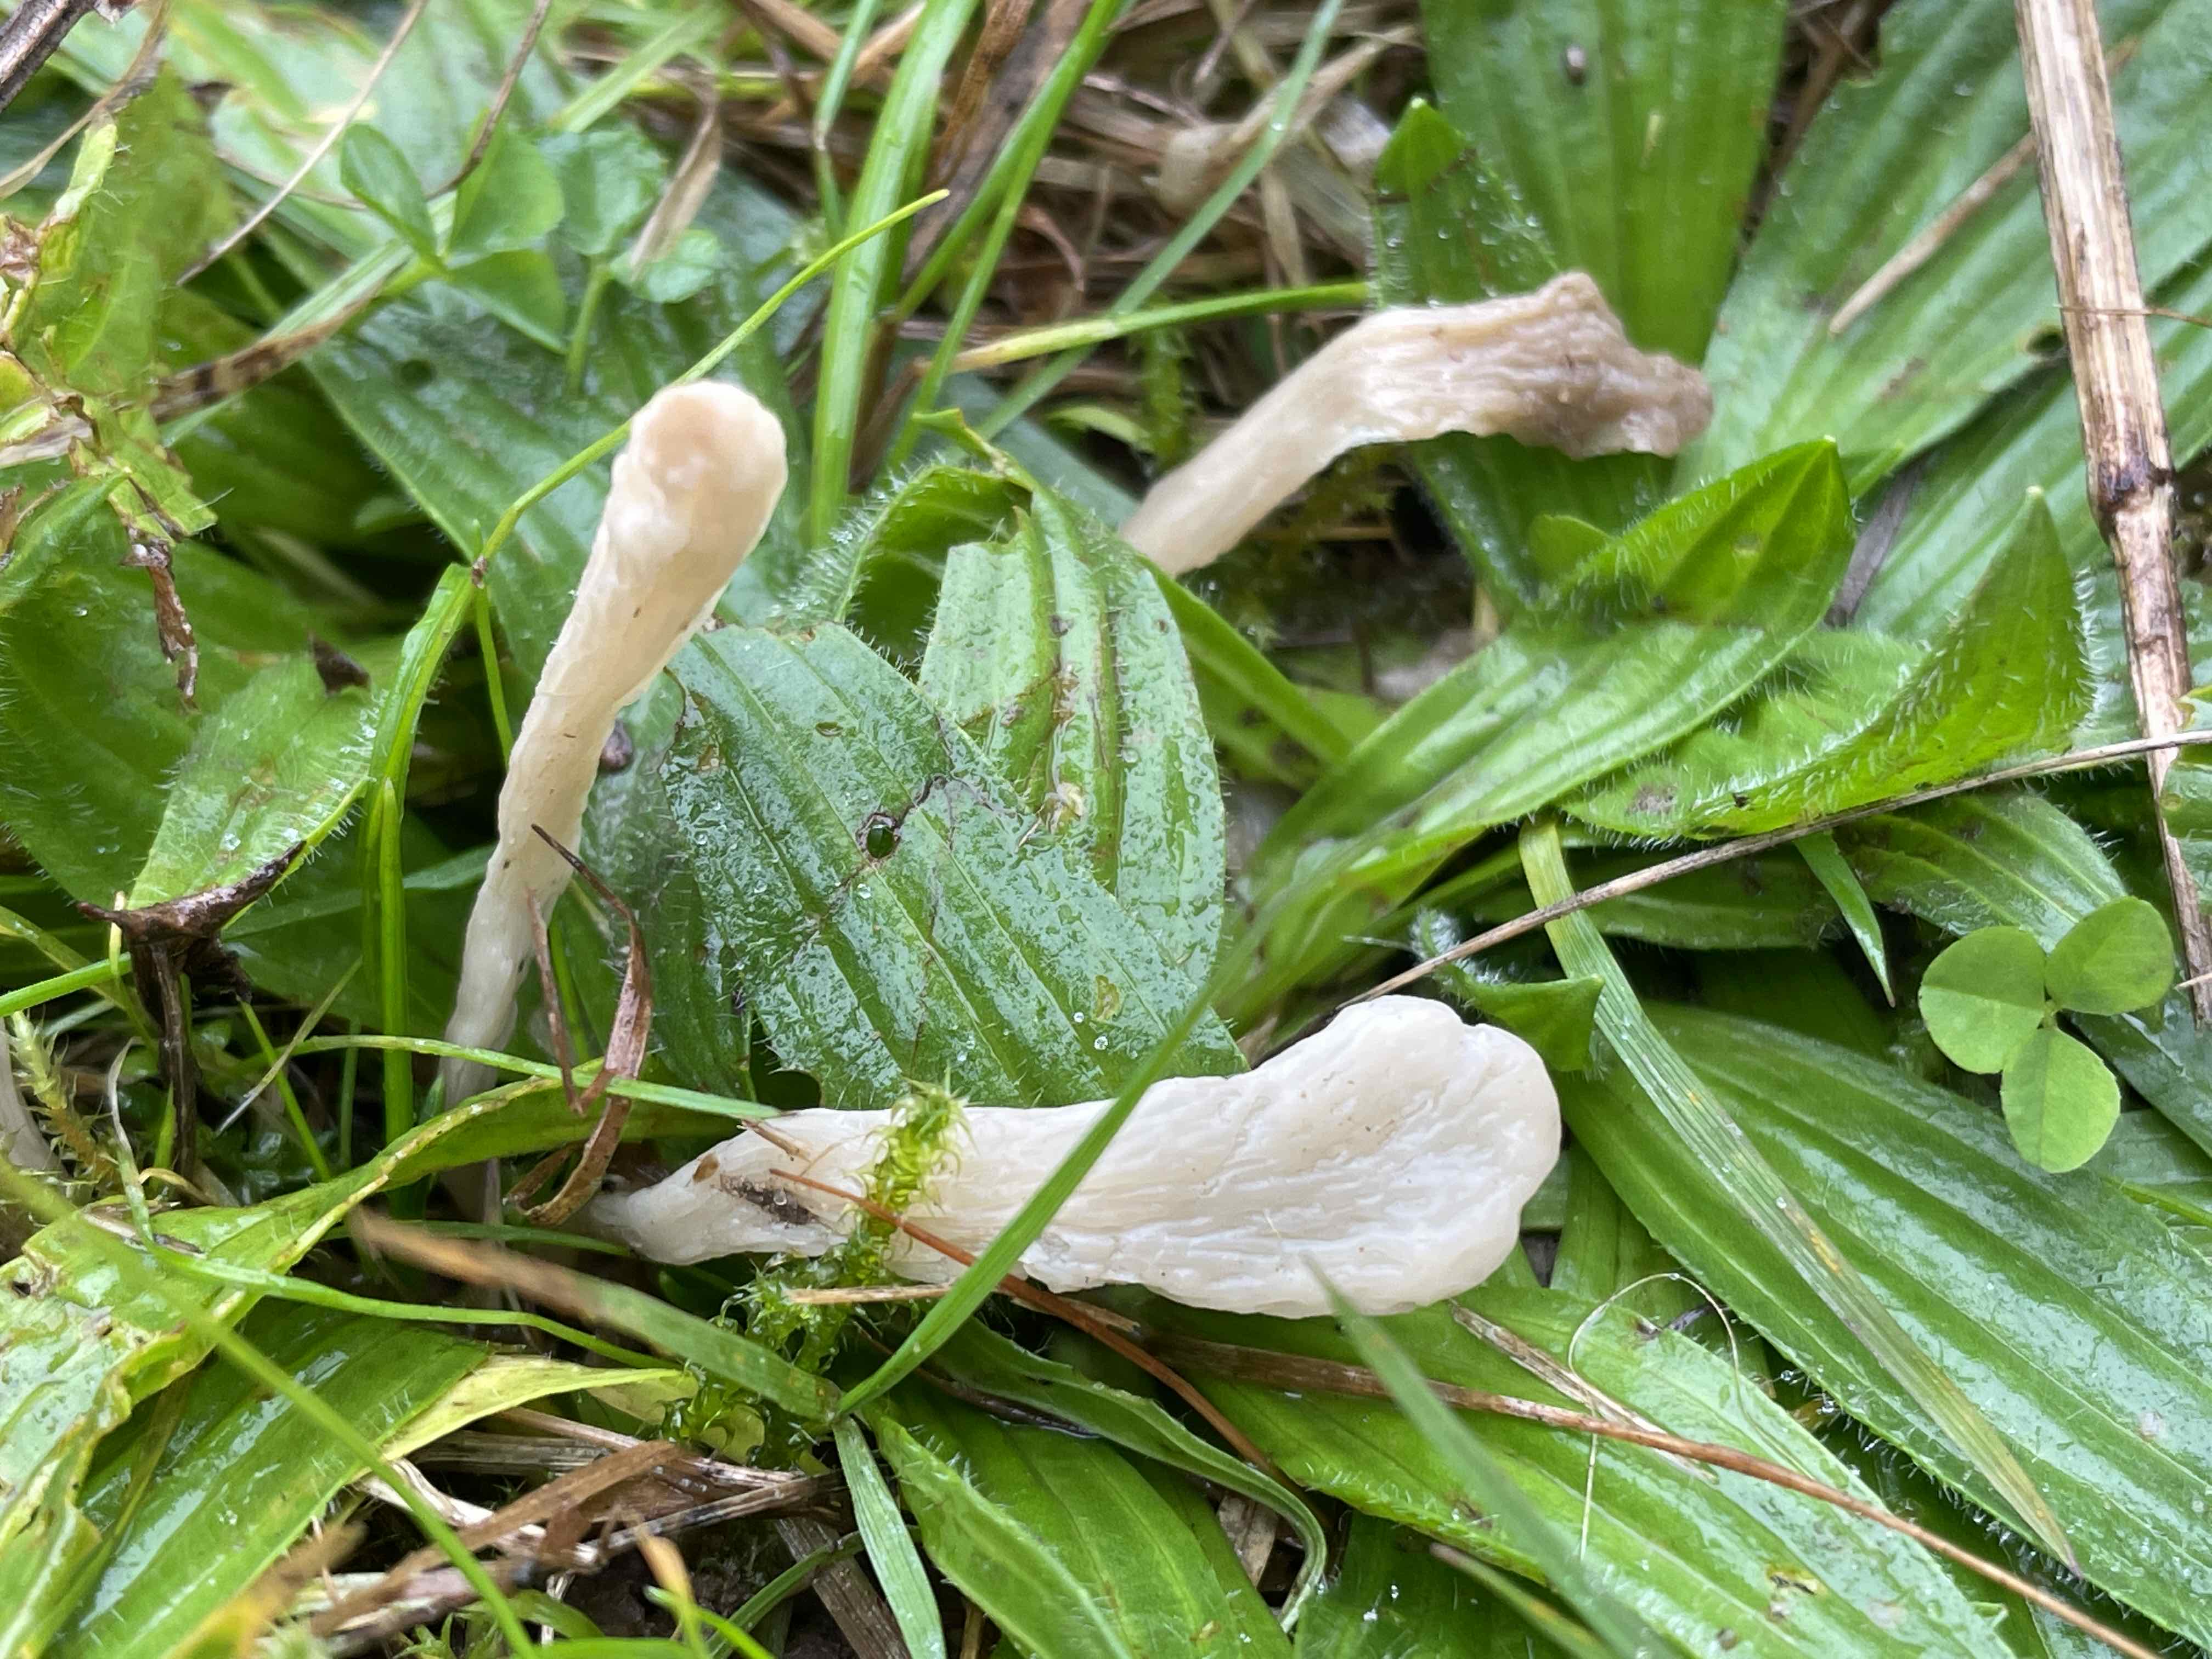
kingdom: Fungi
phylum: Basidiomycota
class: Agaricomycetes
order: Agaricales
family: Clavariaceae
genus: Clavaria
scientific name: Clavaria tenuipes
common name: isabellafarvet køllesvamp
